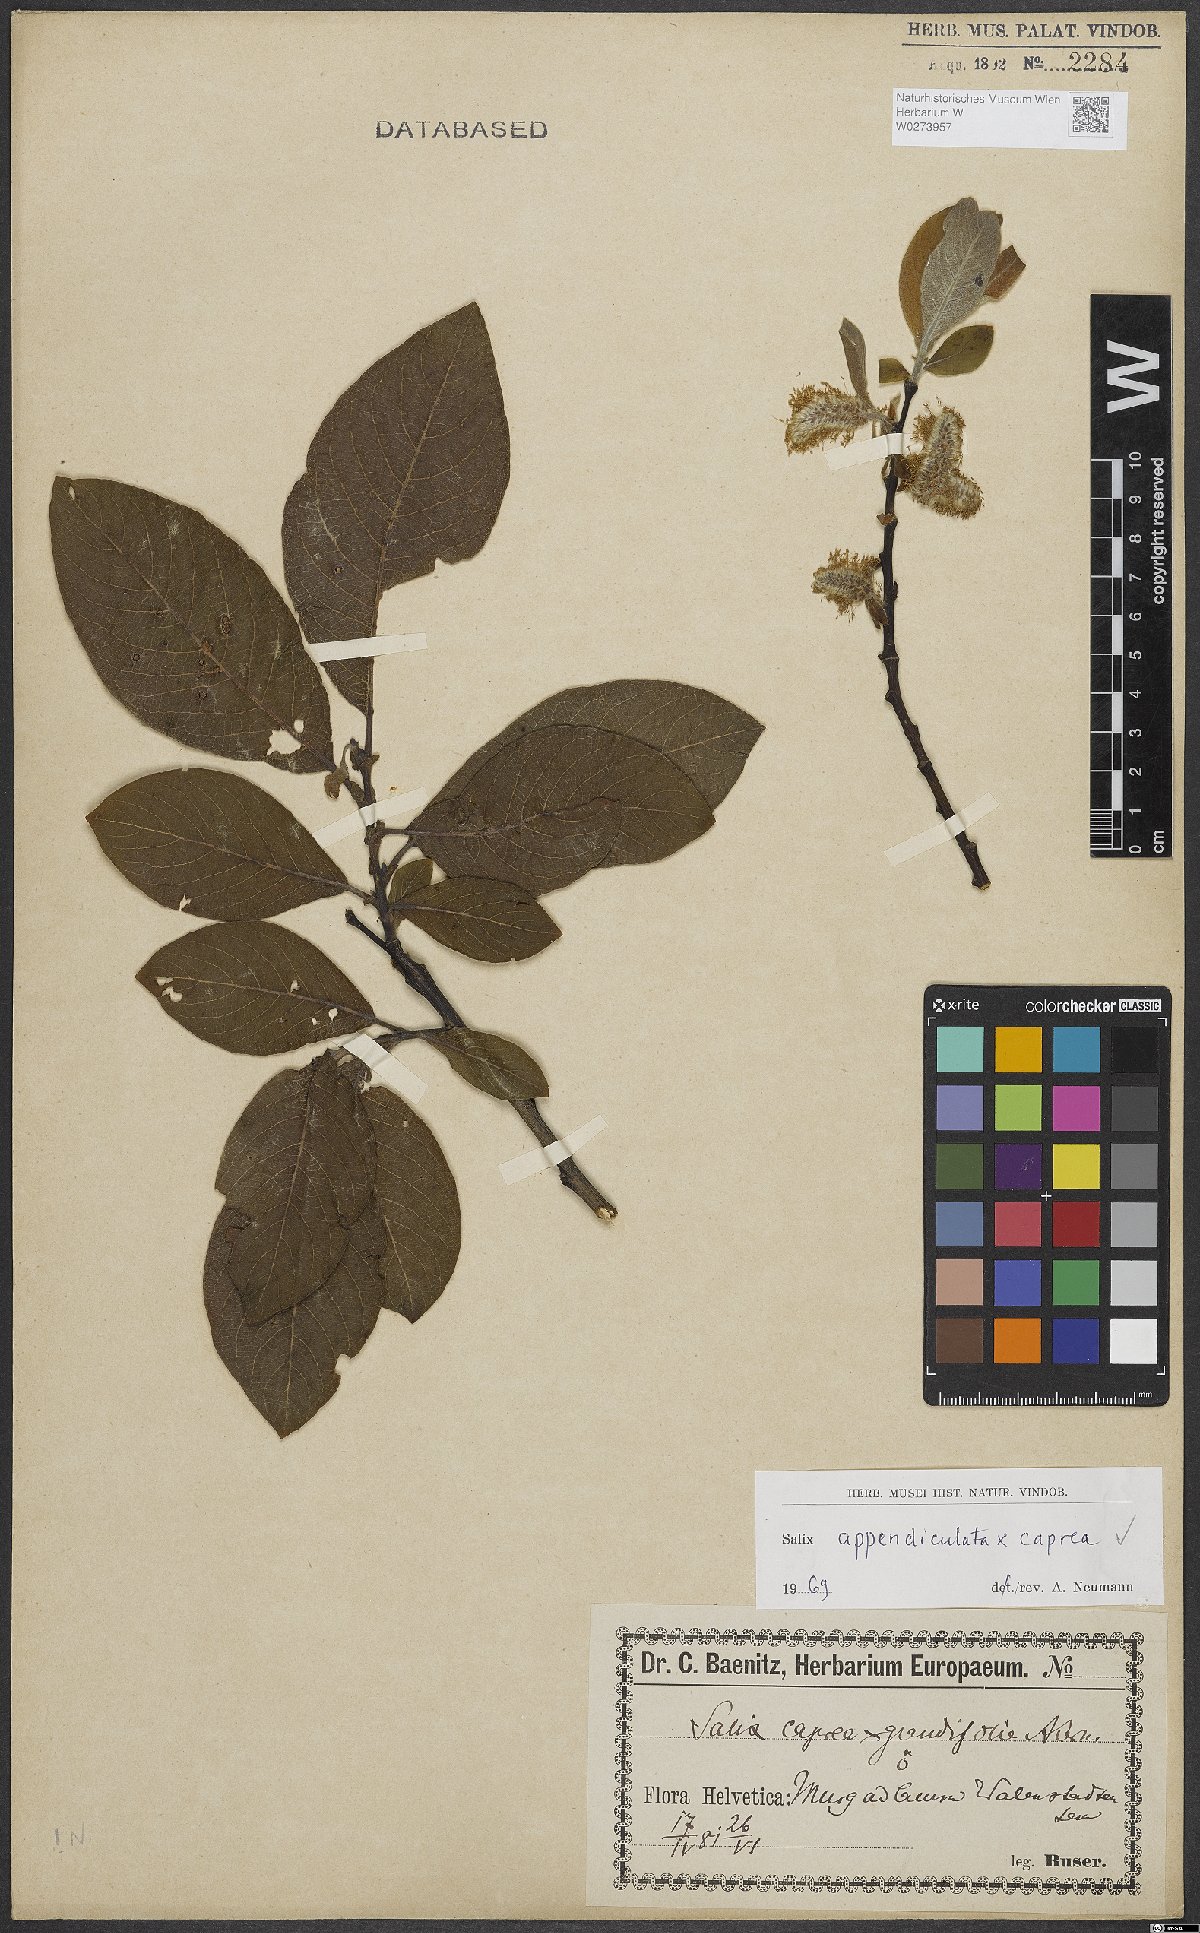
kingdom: Plantae
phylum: Tracheophyta
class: Magnoliopsida
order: Malpighiales
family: Salicaceae
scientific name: Salicaceae
